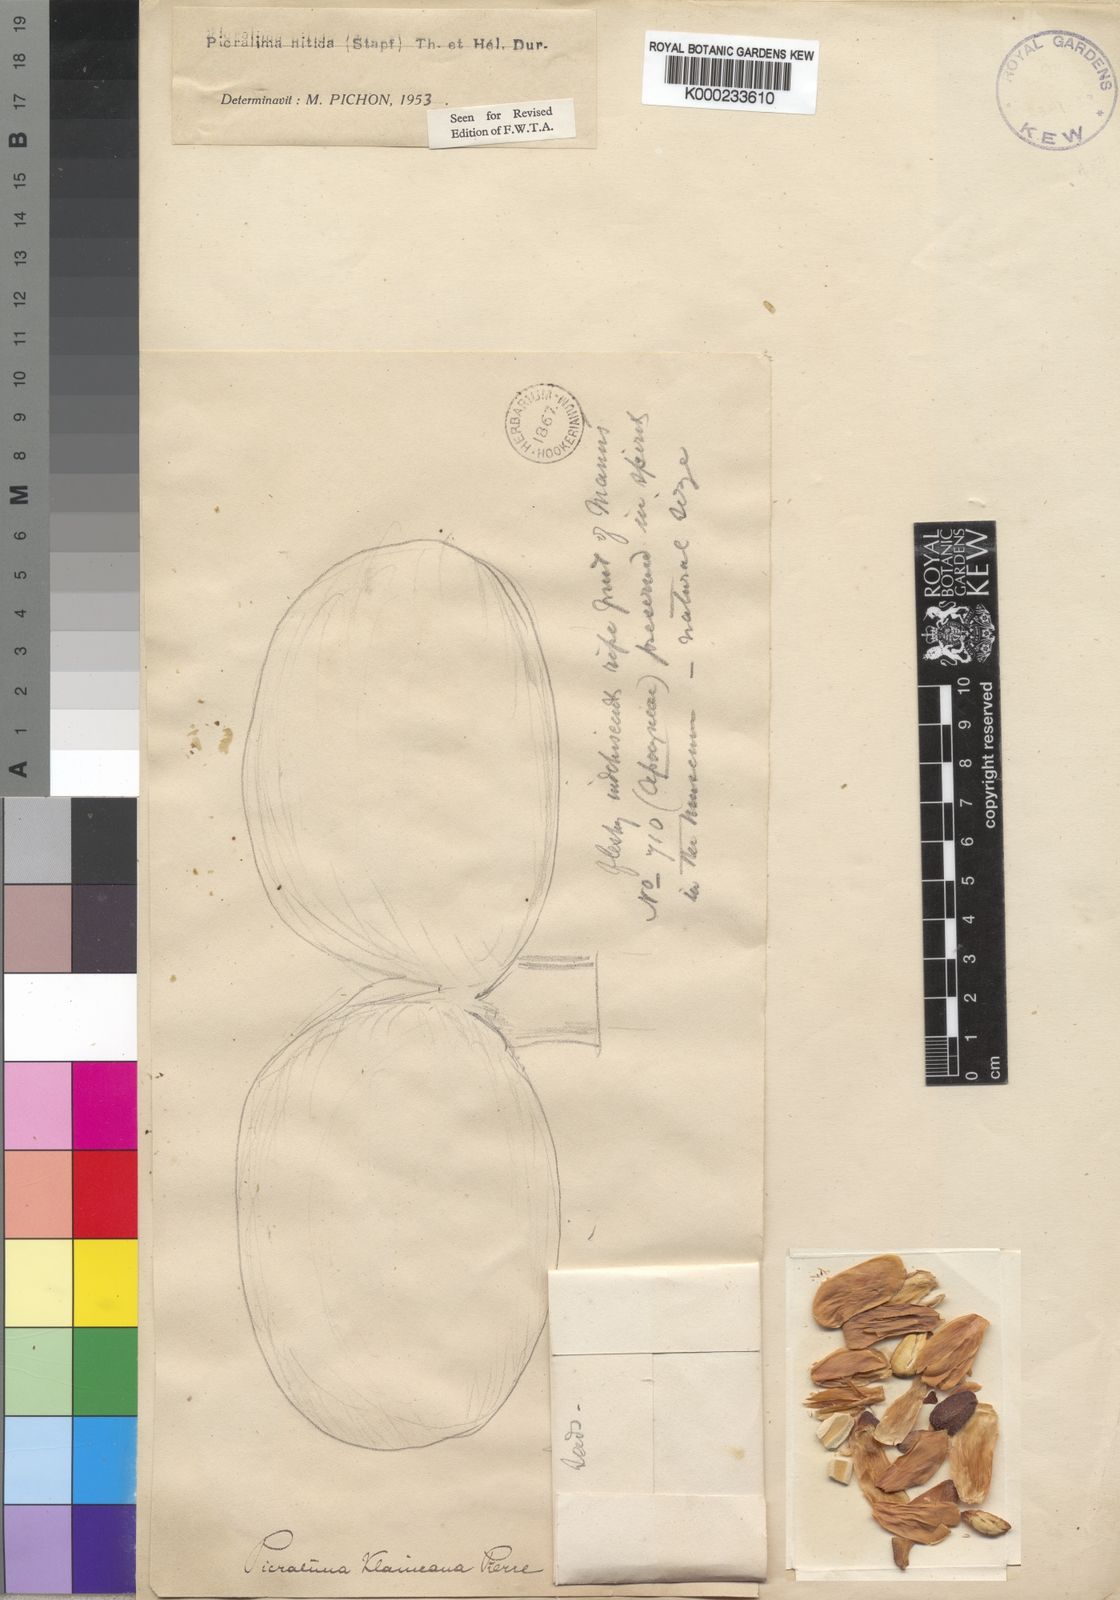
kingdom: Plantae
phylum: Tracheophyta
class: Magnoliopsida
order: Gentianales
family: Apocynaceae
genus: Picralima
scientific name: Picralima nitida
